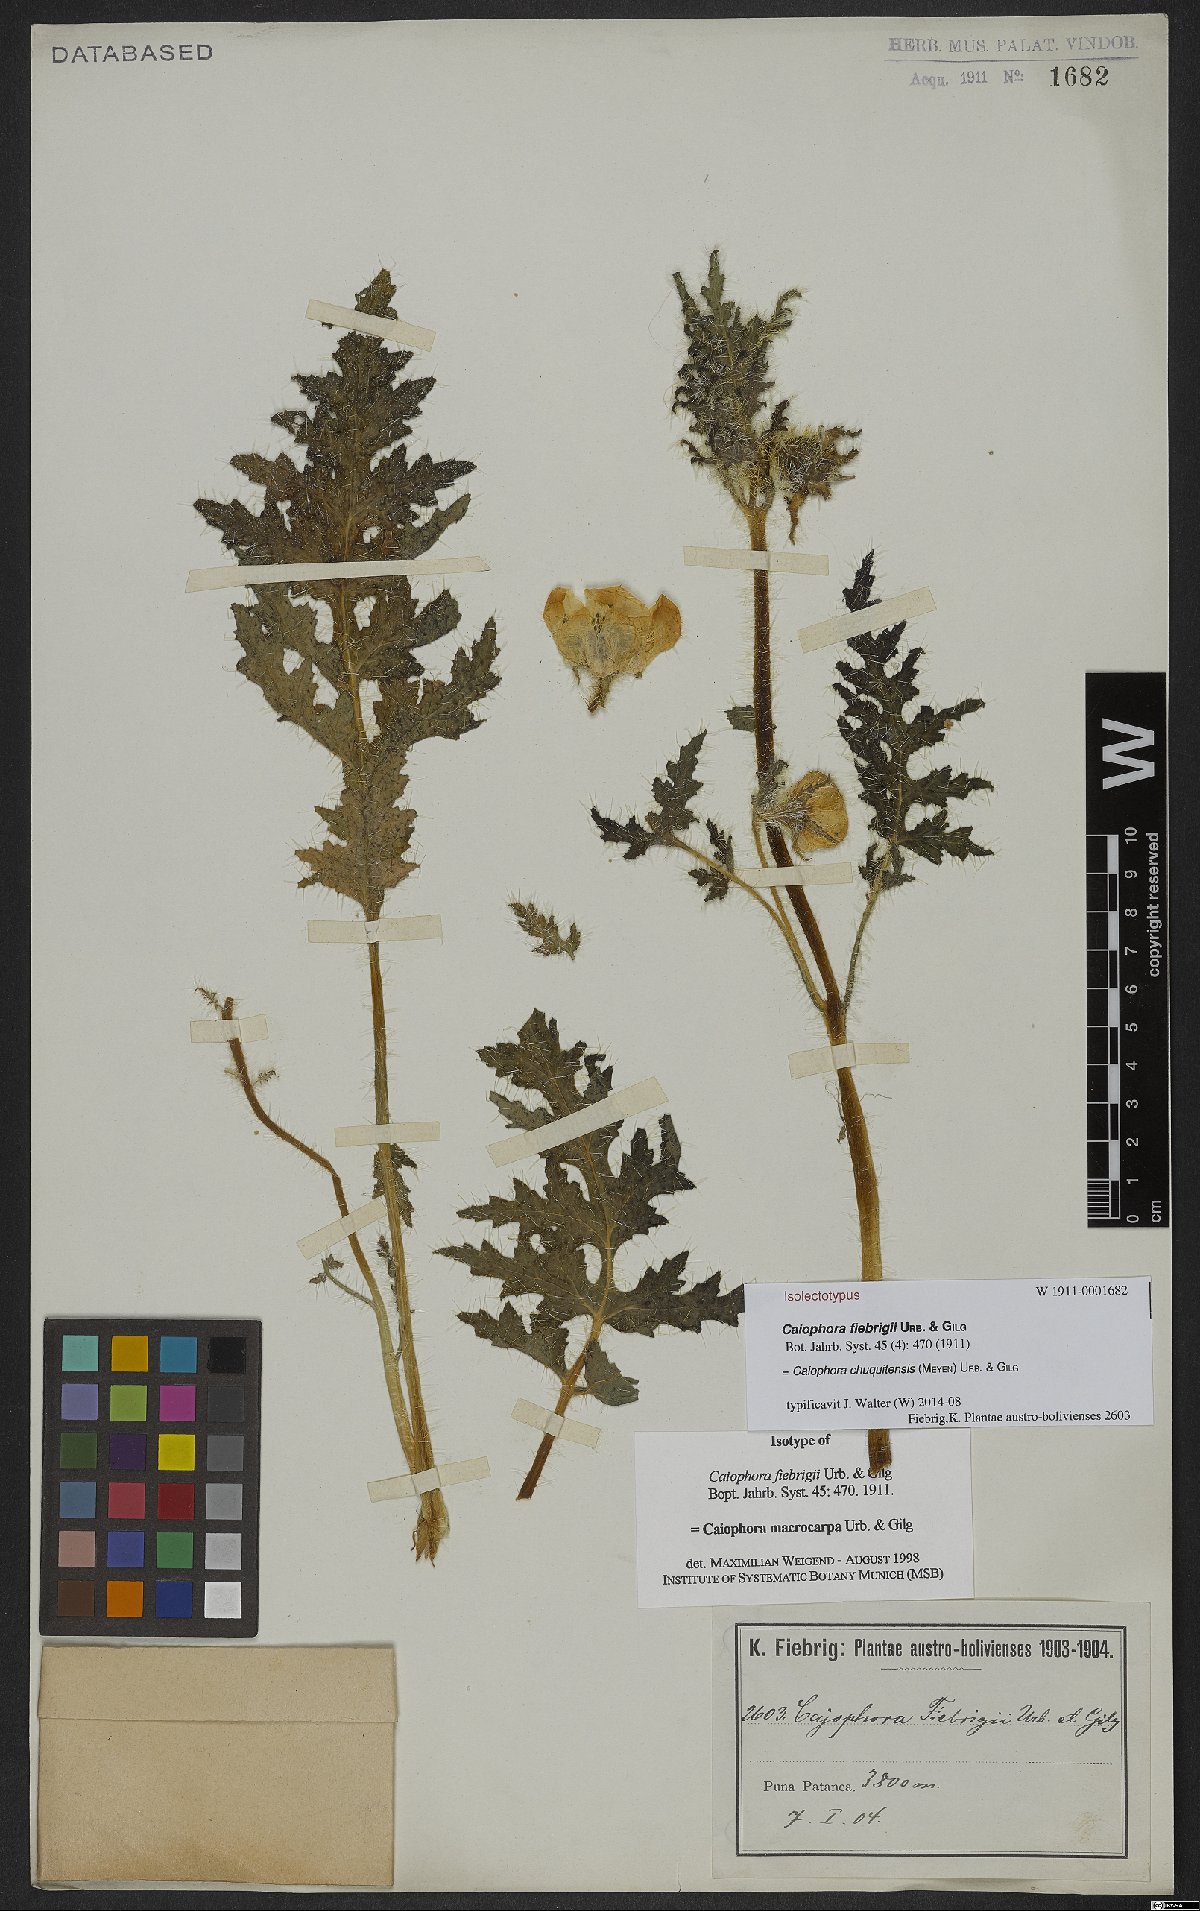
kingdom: Plantae
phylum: Tracheophyta
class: Magnoliopsida
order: Cornales
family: Loasaceae
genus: Caiophora
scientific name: Caiophora chuquitensis
